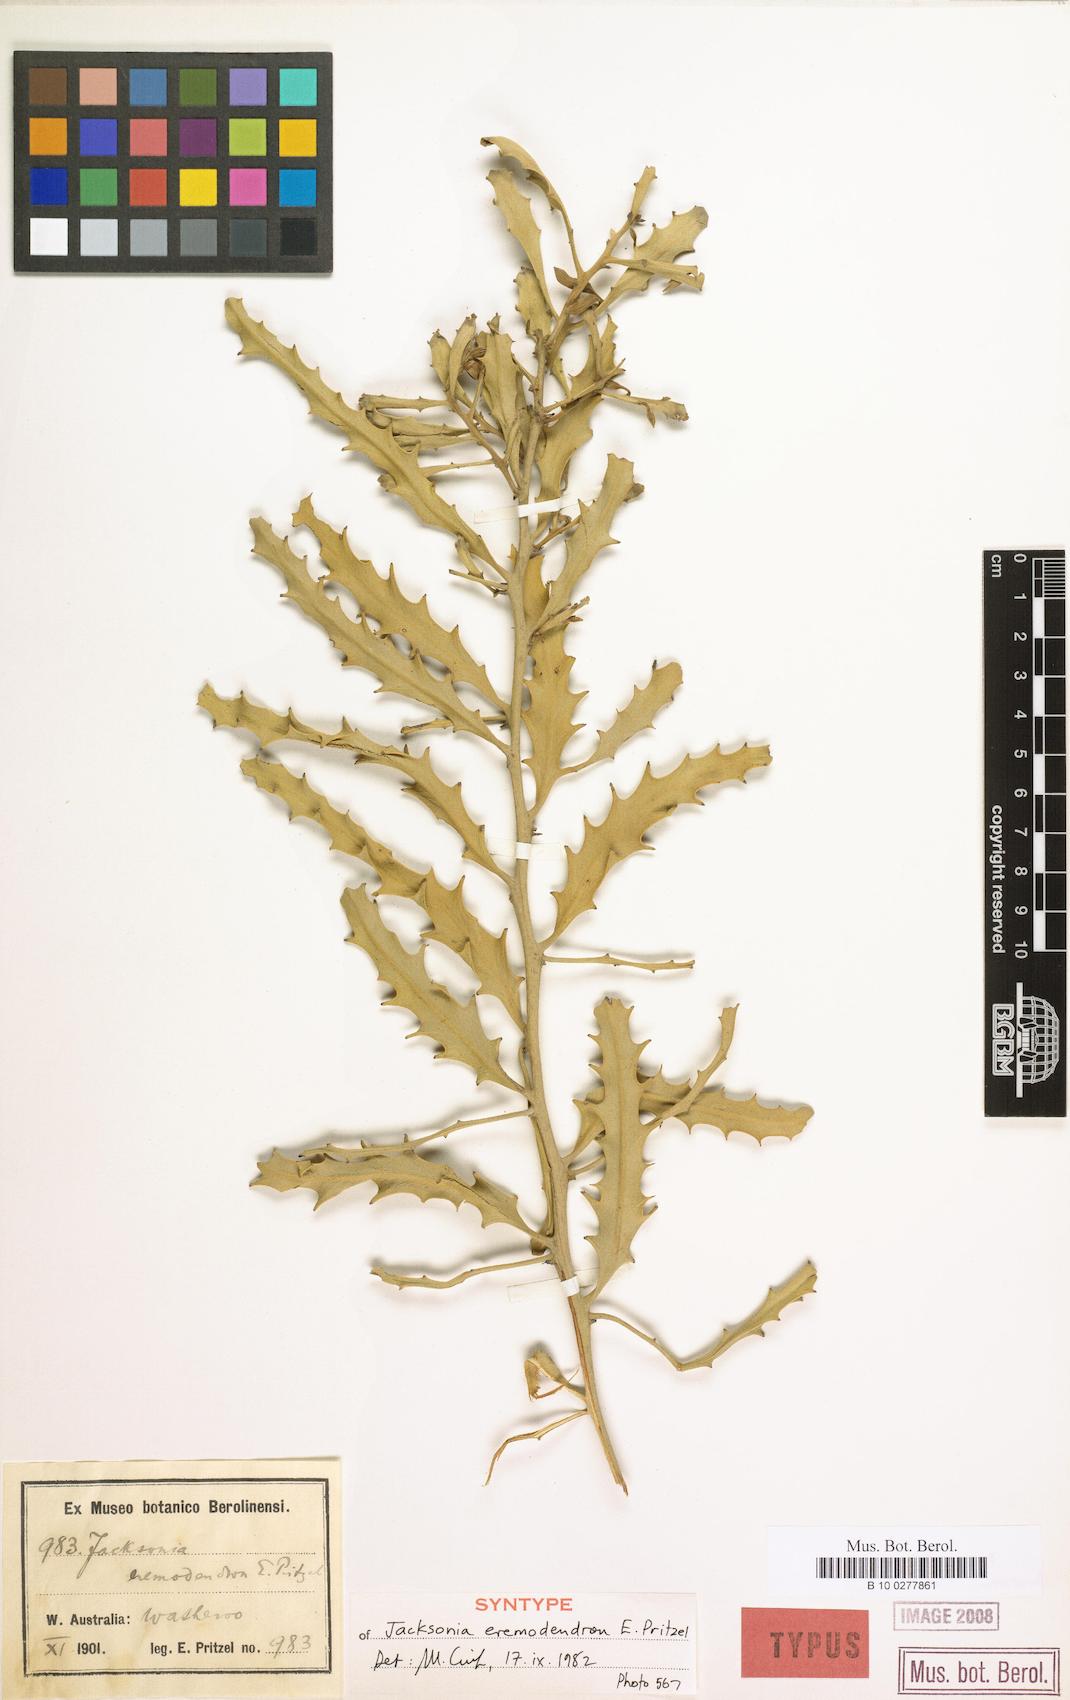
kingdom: Plantae
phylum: Tracheophyta
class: Magnoliopsida
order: Fabales
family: Fabaceae
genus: Jacksonia
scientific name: Jacksonia eremodendron
